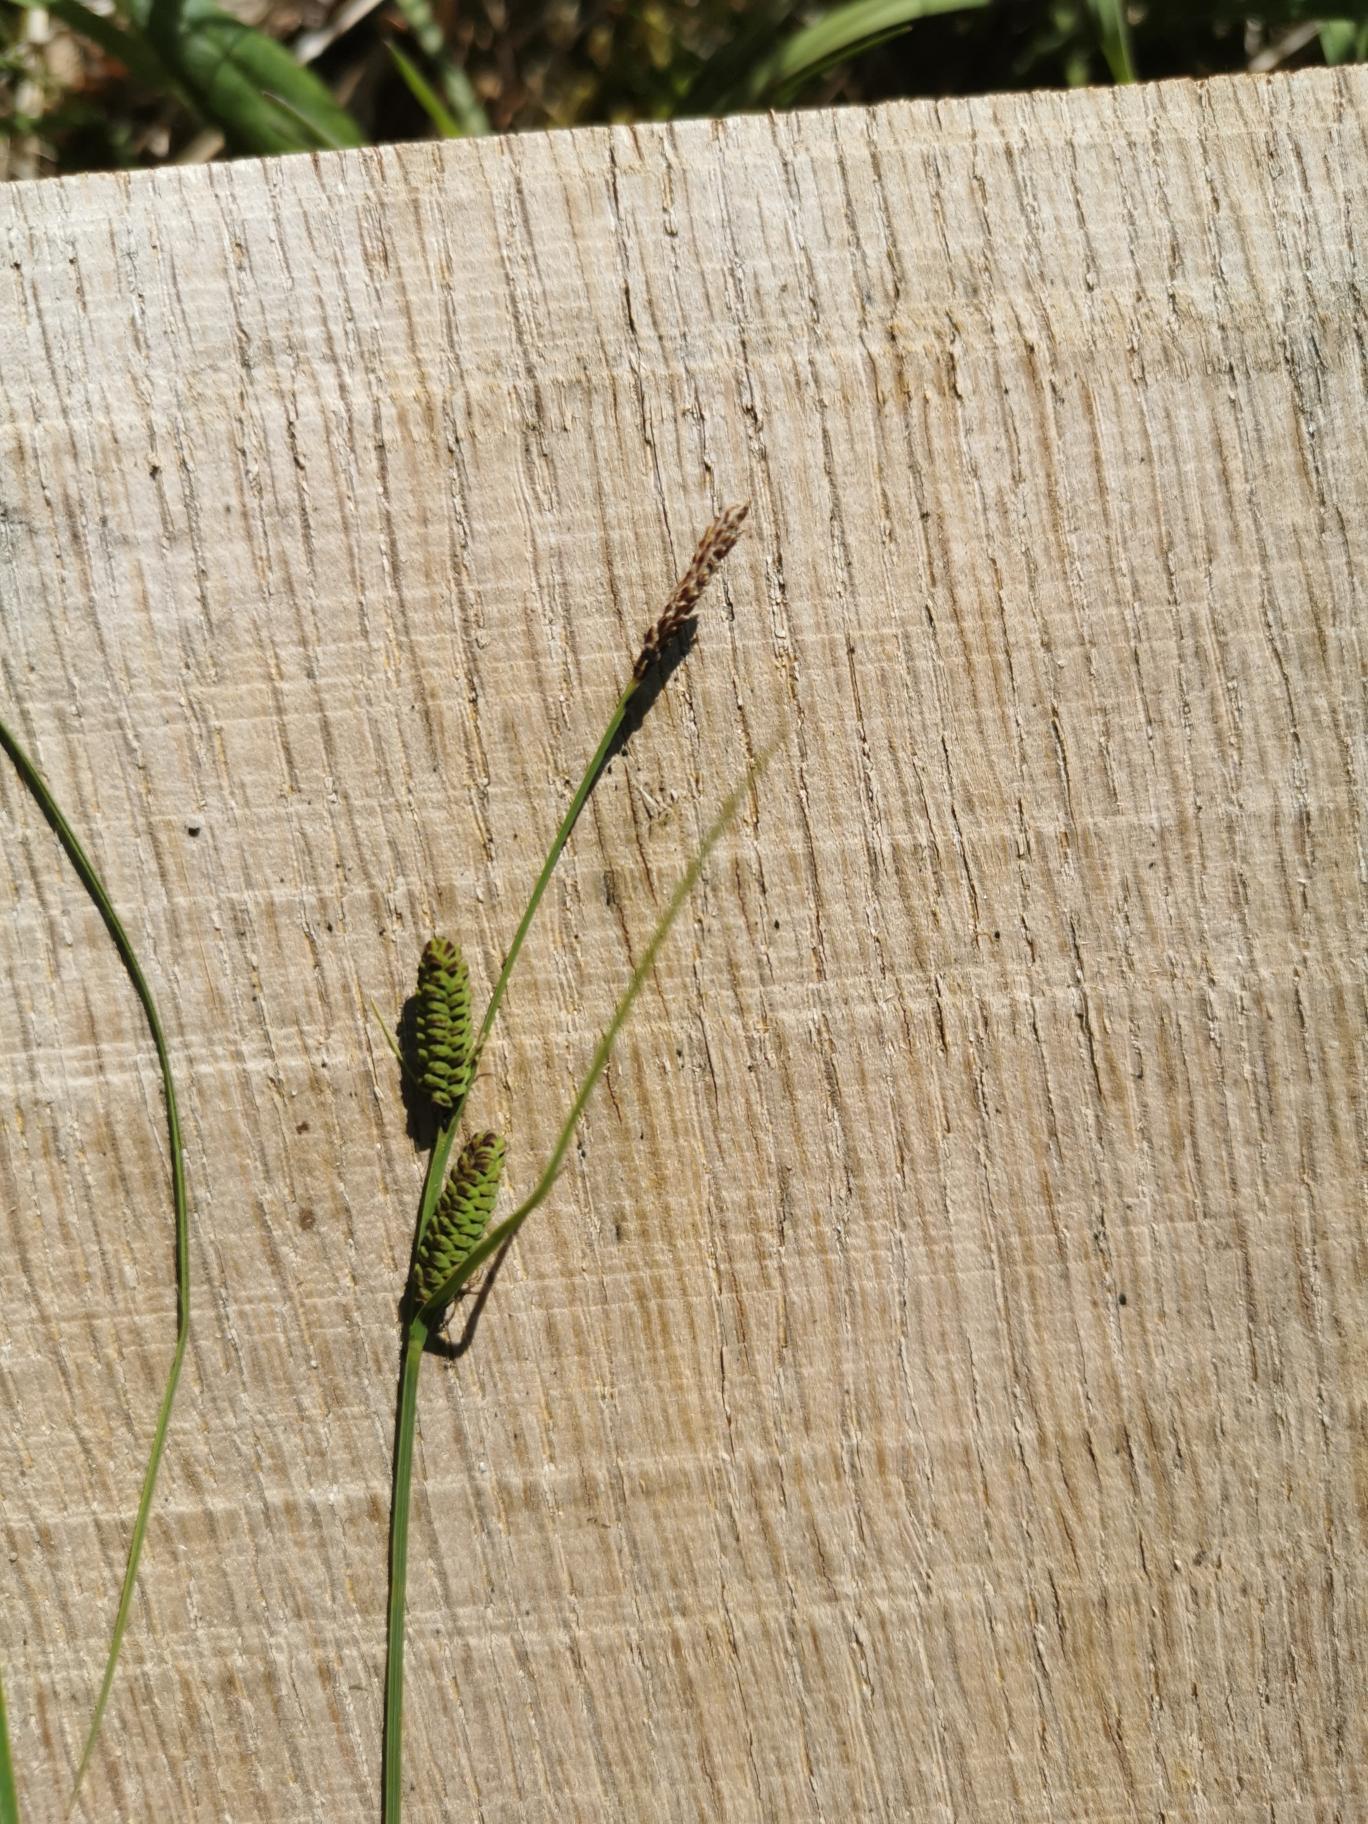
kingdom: Plantae
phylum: Tracheophyta
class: Liliopsida
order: Poales
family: Cyperaceae
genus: Carex
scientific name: Carex nigra
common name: Almindelig star
